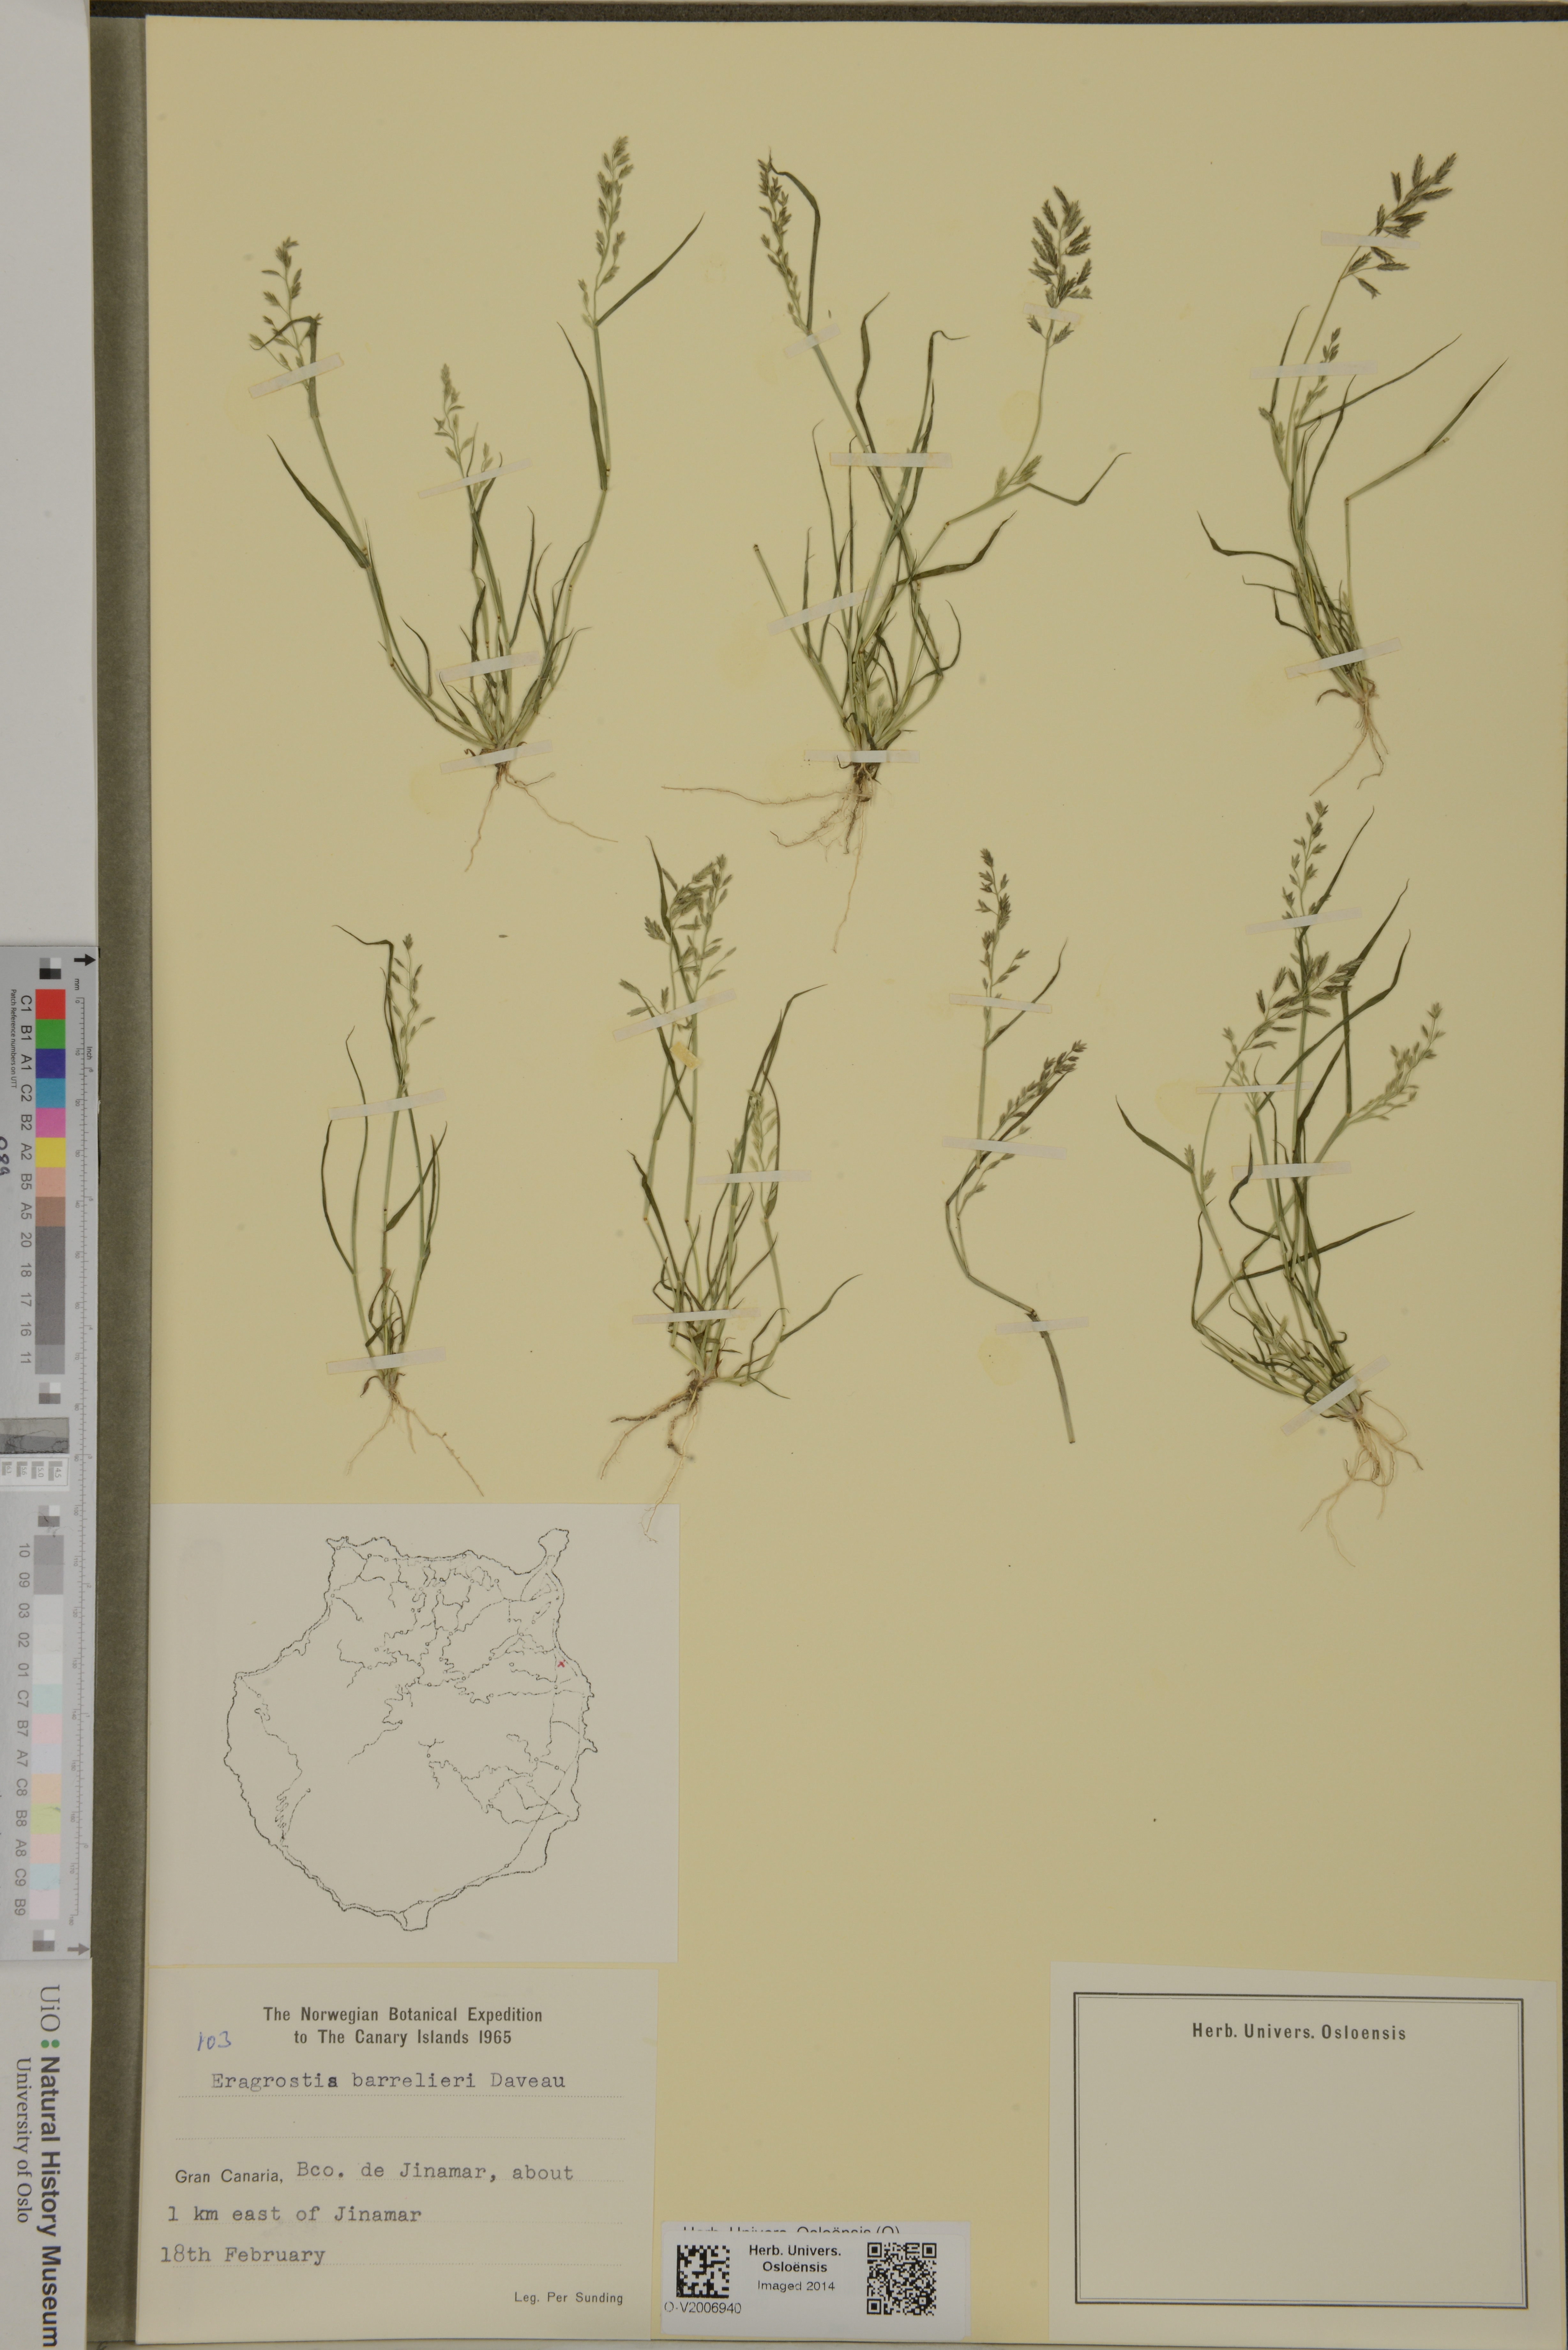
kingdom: Plantae
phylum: Tracheophyta
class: Liliopsida
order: Poales
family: Poaceae
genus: Eragrostis
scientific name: Eragrostis barrelieri
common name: Mediterranean lovegrass
